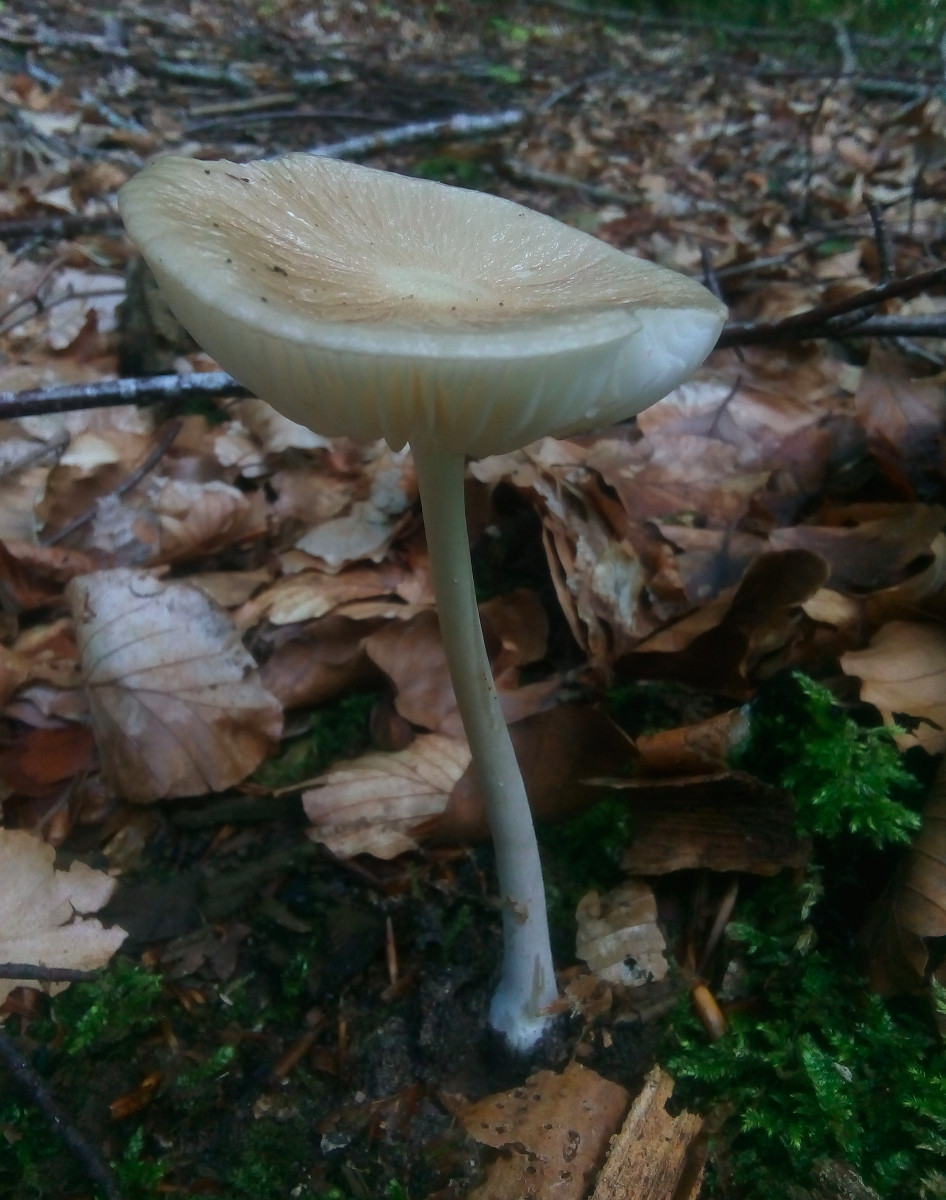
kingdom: Fungi
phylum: Basidiomycota
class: Agaricomycetes
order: Agaricales
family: Physalacriaceae
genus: Hymenopellis
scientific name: Hymenopellis radicata
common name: almindelig pælerodshat
